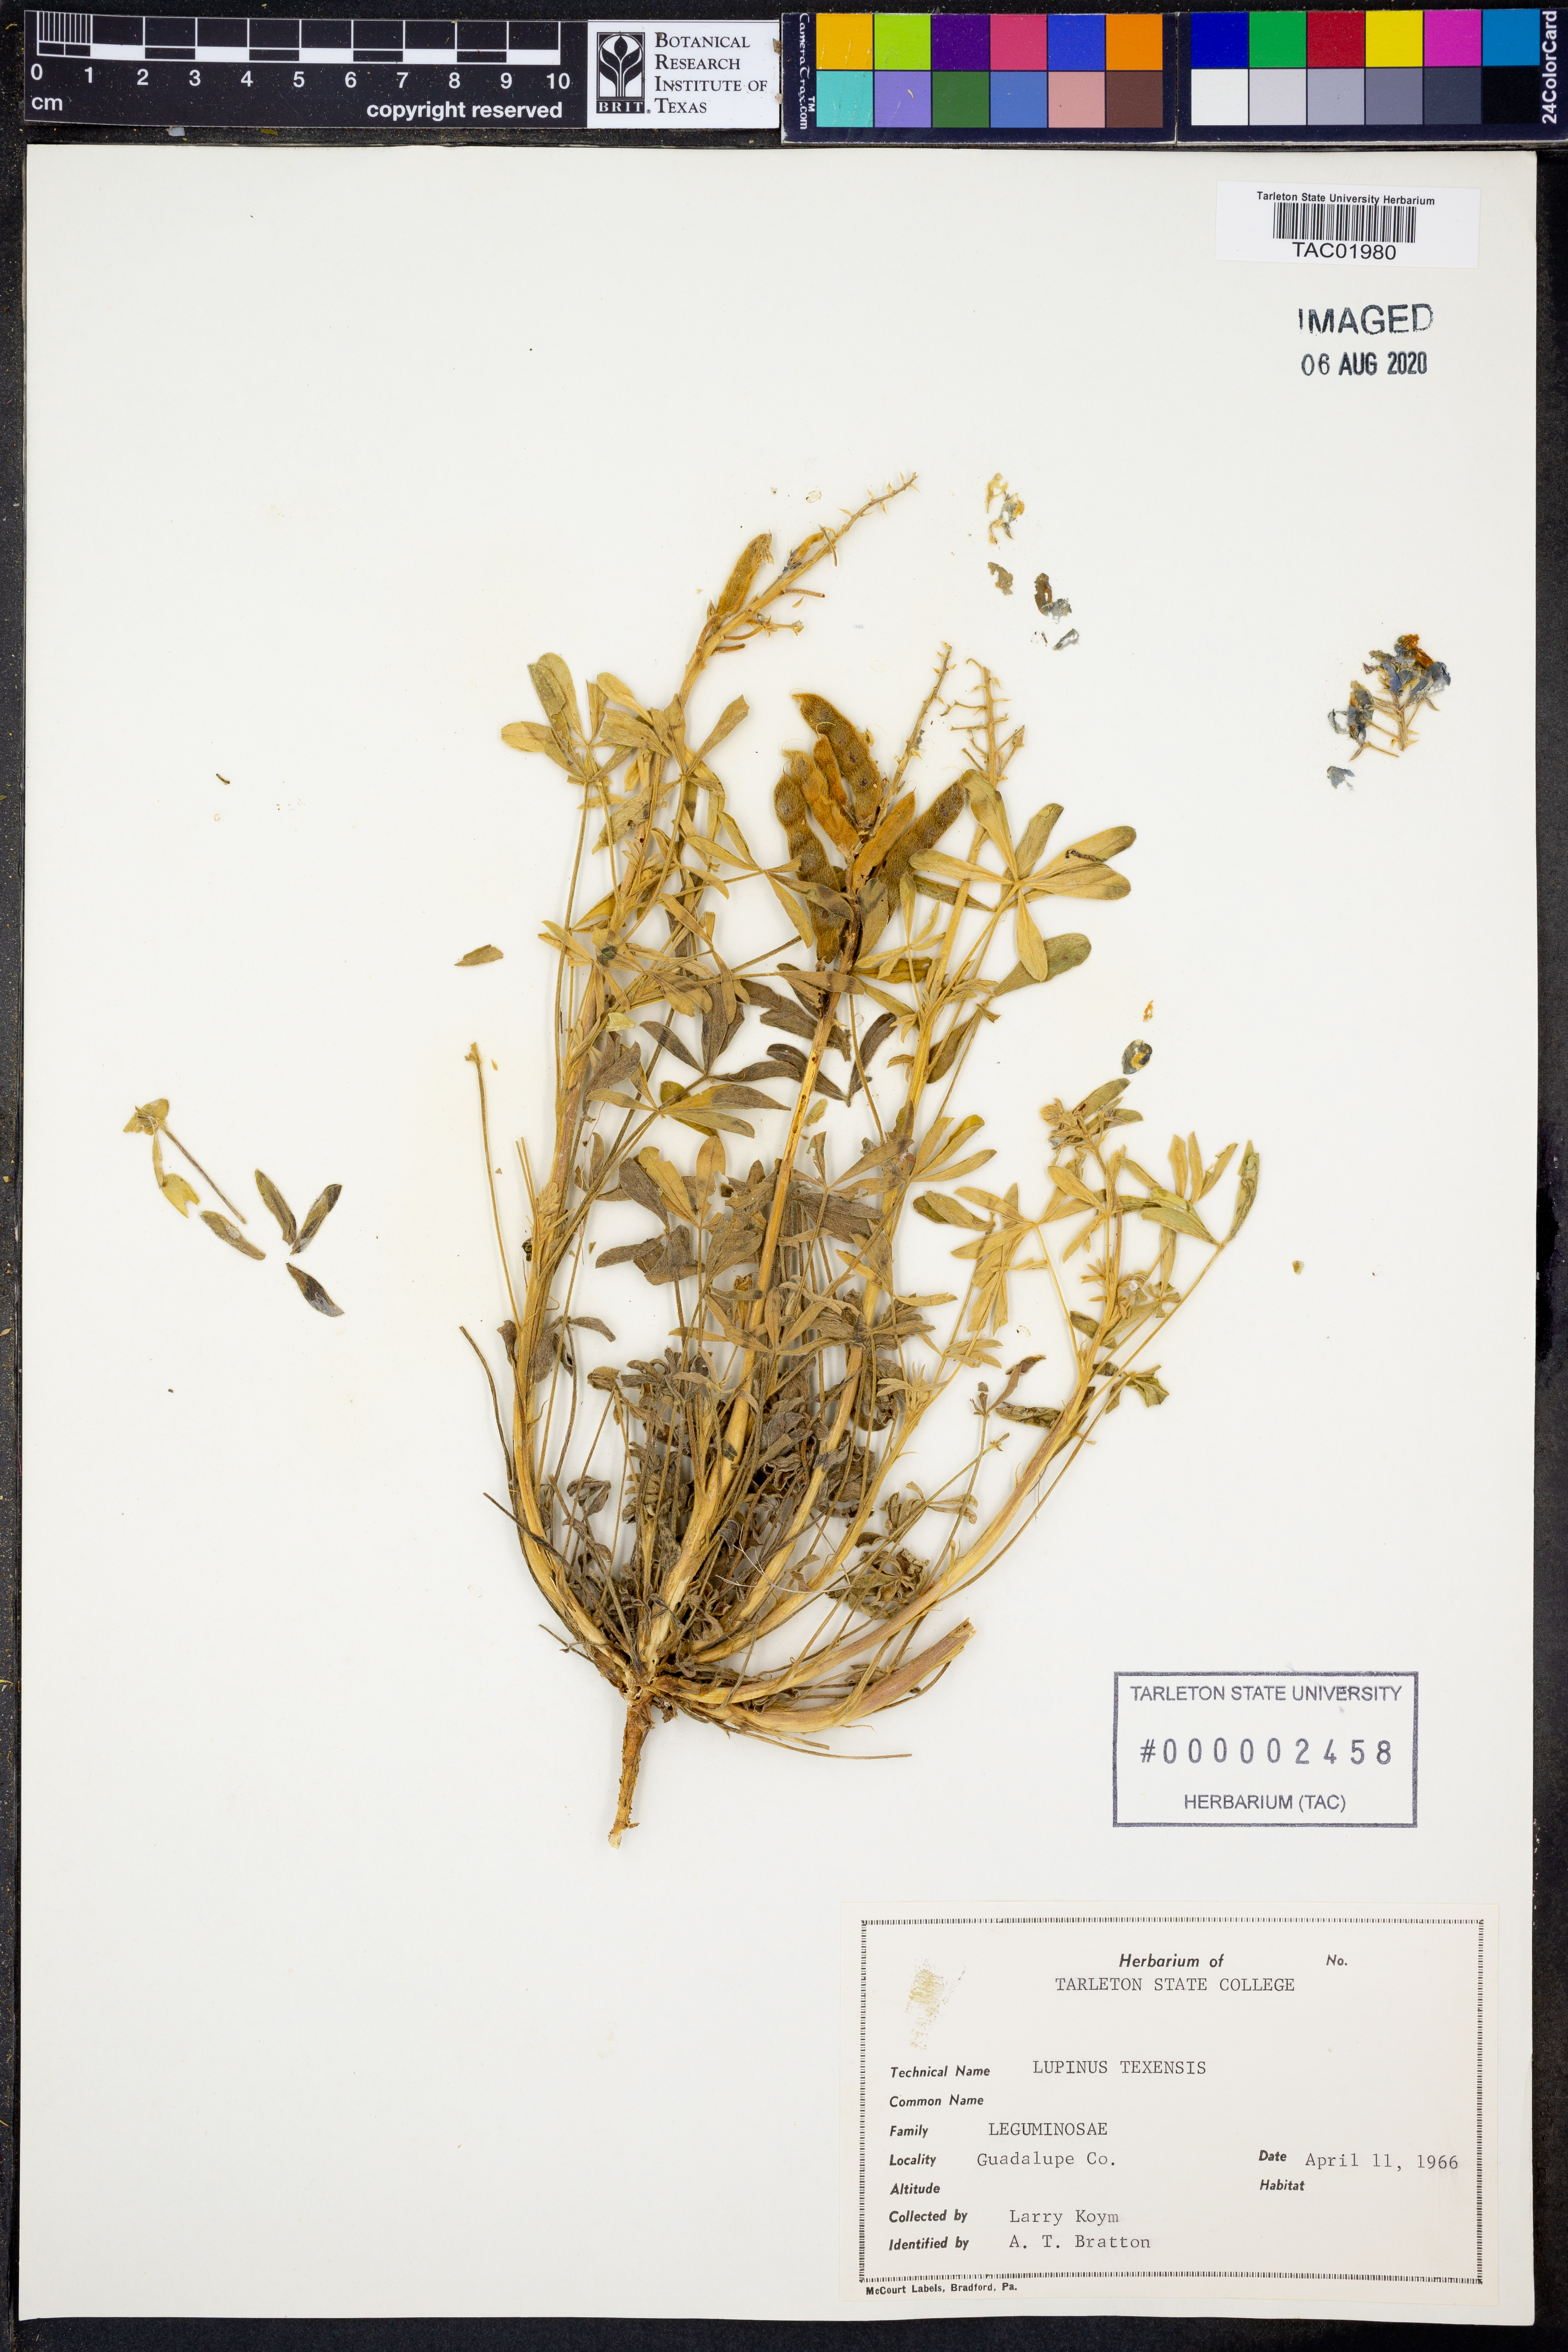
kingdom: Plantae
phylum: Tracheophyta
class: Magnoliopsida
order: Fabales
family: Fabaceae
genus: Lupinus
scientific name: Lupinus texensis
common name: Texas bluebonnet
